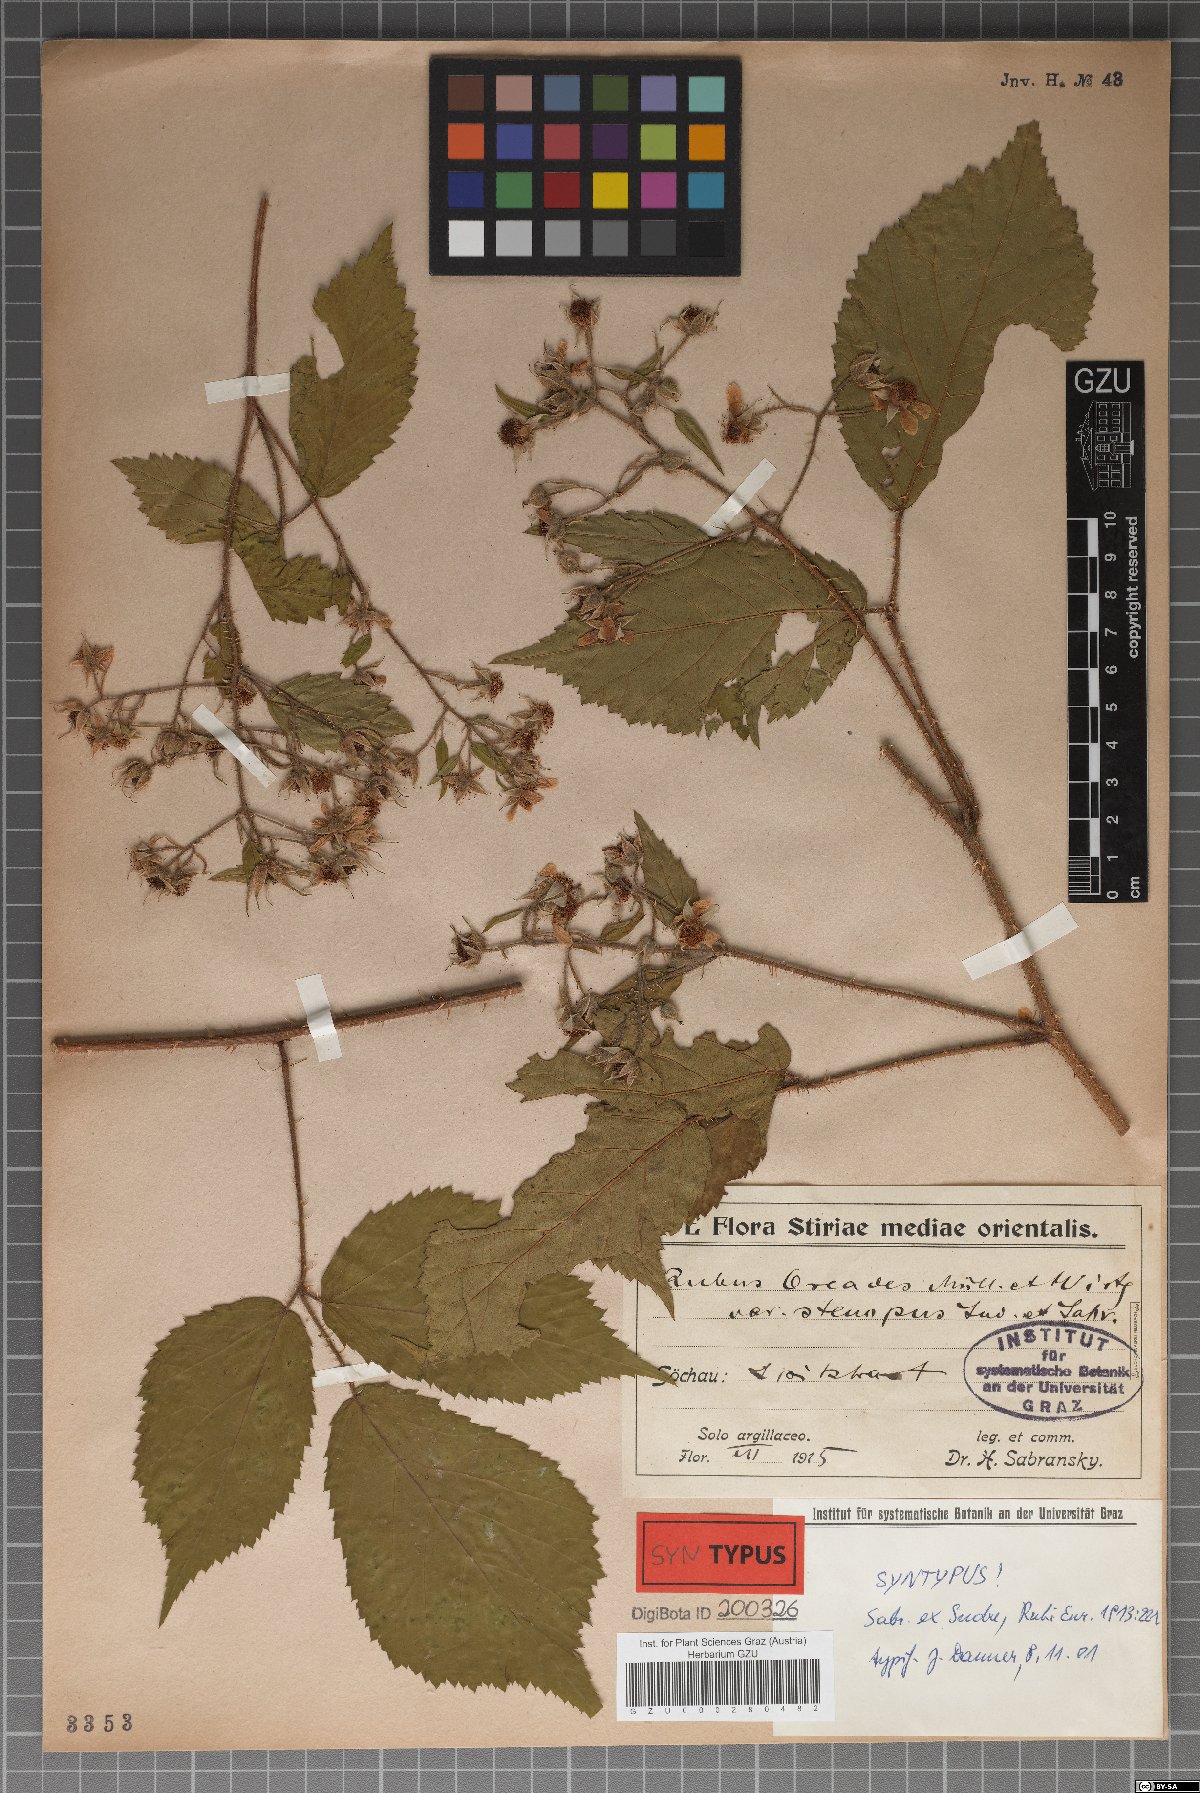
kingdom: Plantae
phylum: Tracheophyta
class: Magnoliopsida
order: Rosales
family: Rosaceae
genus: Rubus
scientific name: Rubus oreades
